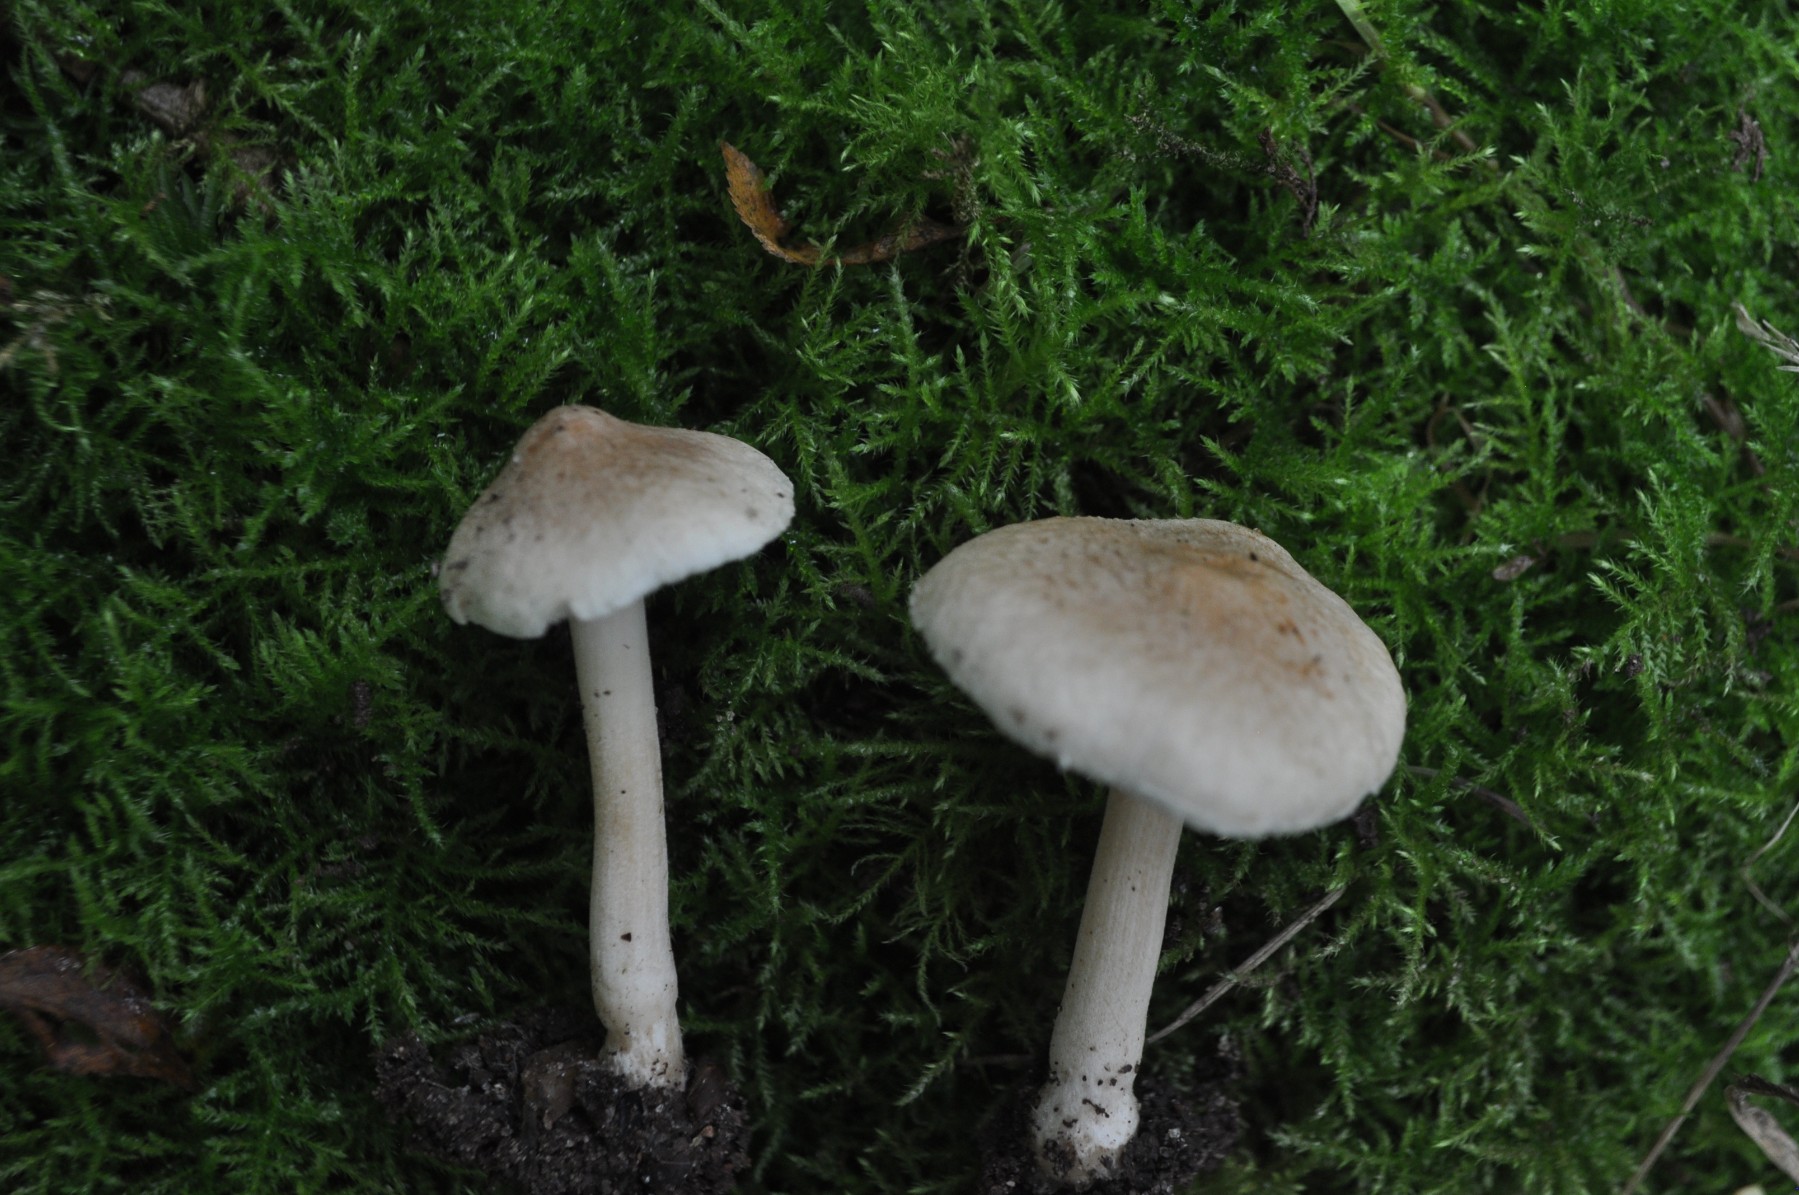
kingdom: Fungi
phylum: Basidiomycota
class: Agaricomycetes
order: Agaricales
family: Inocybaceae
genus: Inocybe
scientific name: Inocybe sindonia
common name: bleg trævlhat
